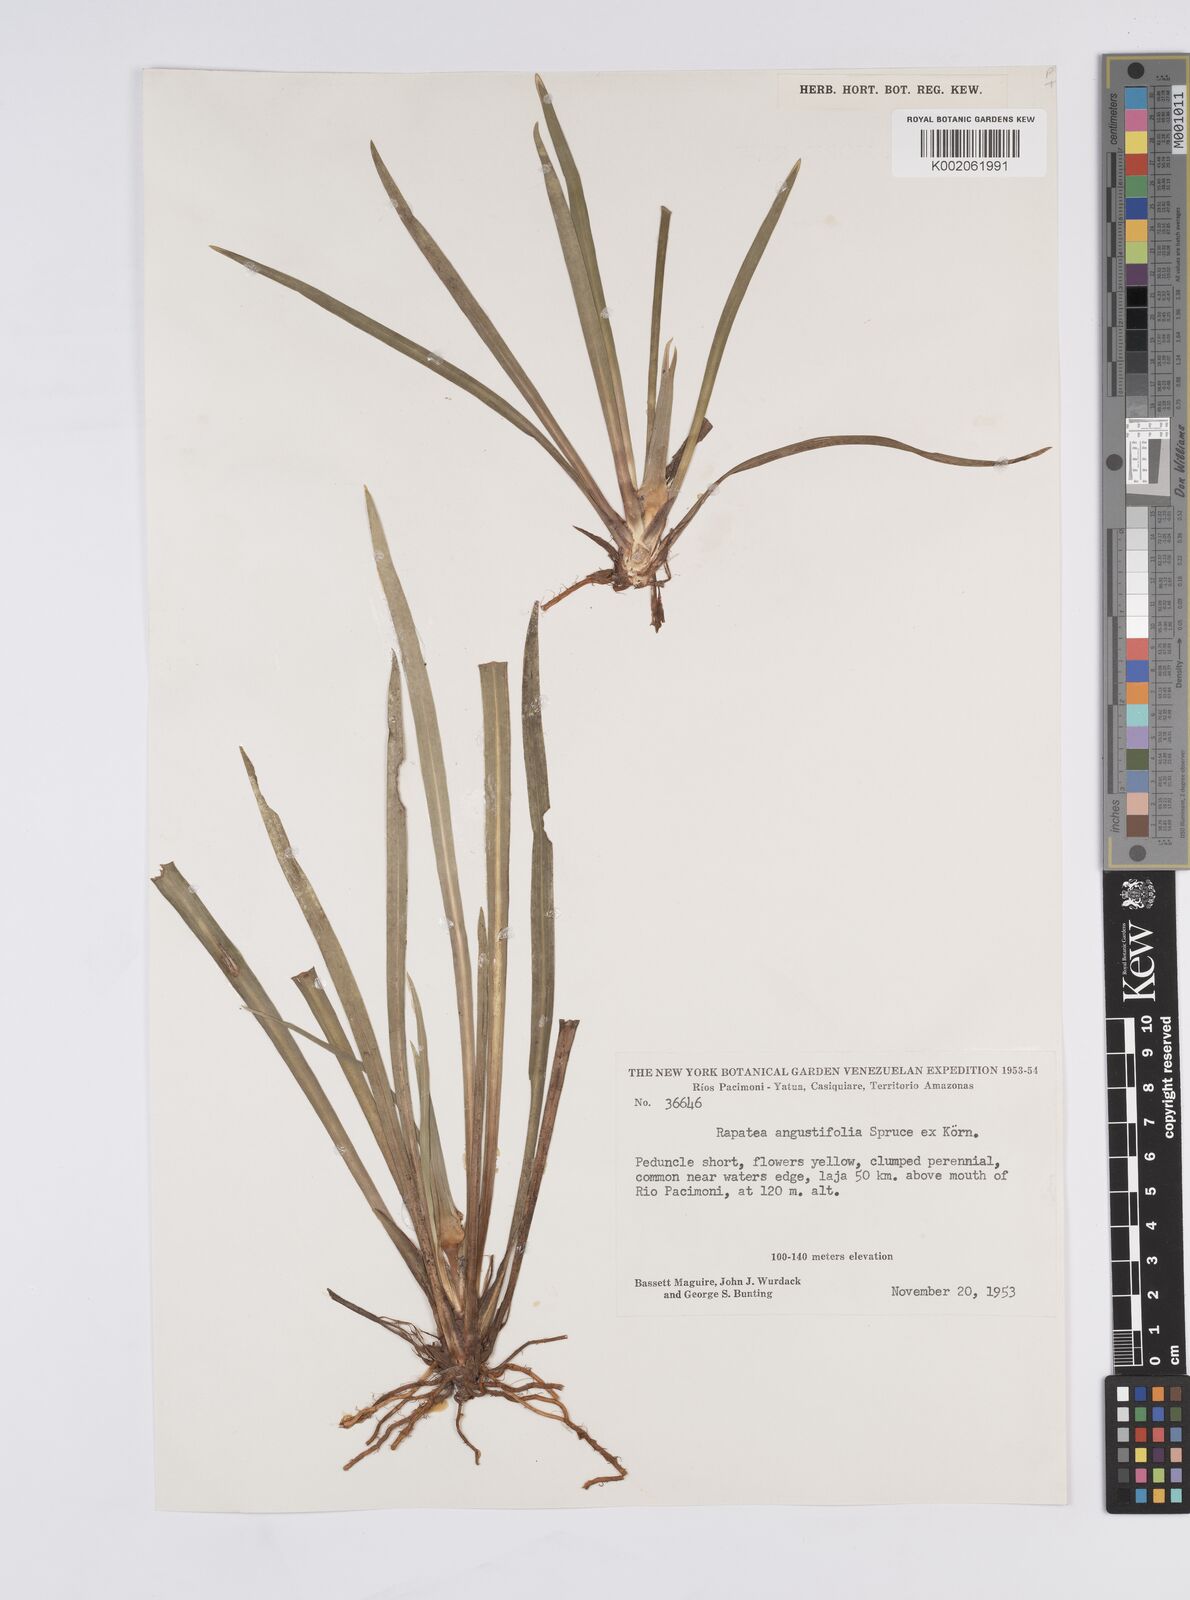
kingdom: Plantae
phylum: Tracheophyta
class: Liliopsida
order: Poales
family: Rapateaceae
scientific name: Rapateaceae
